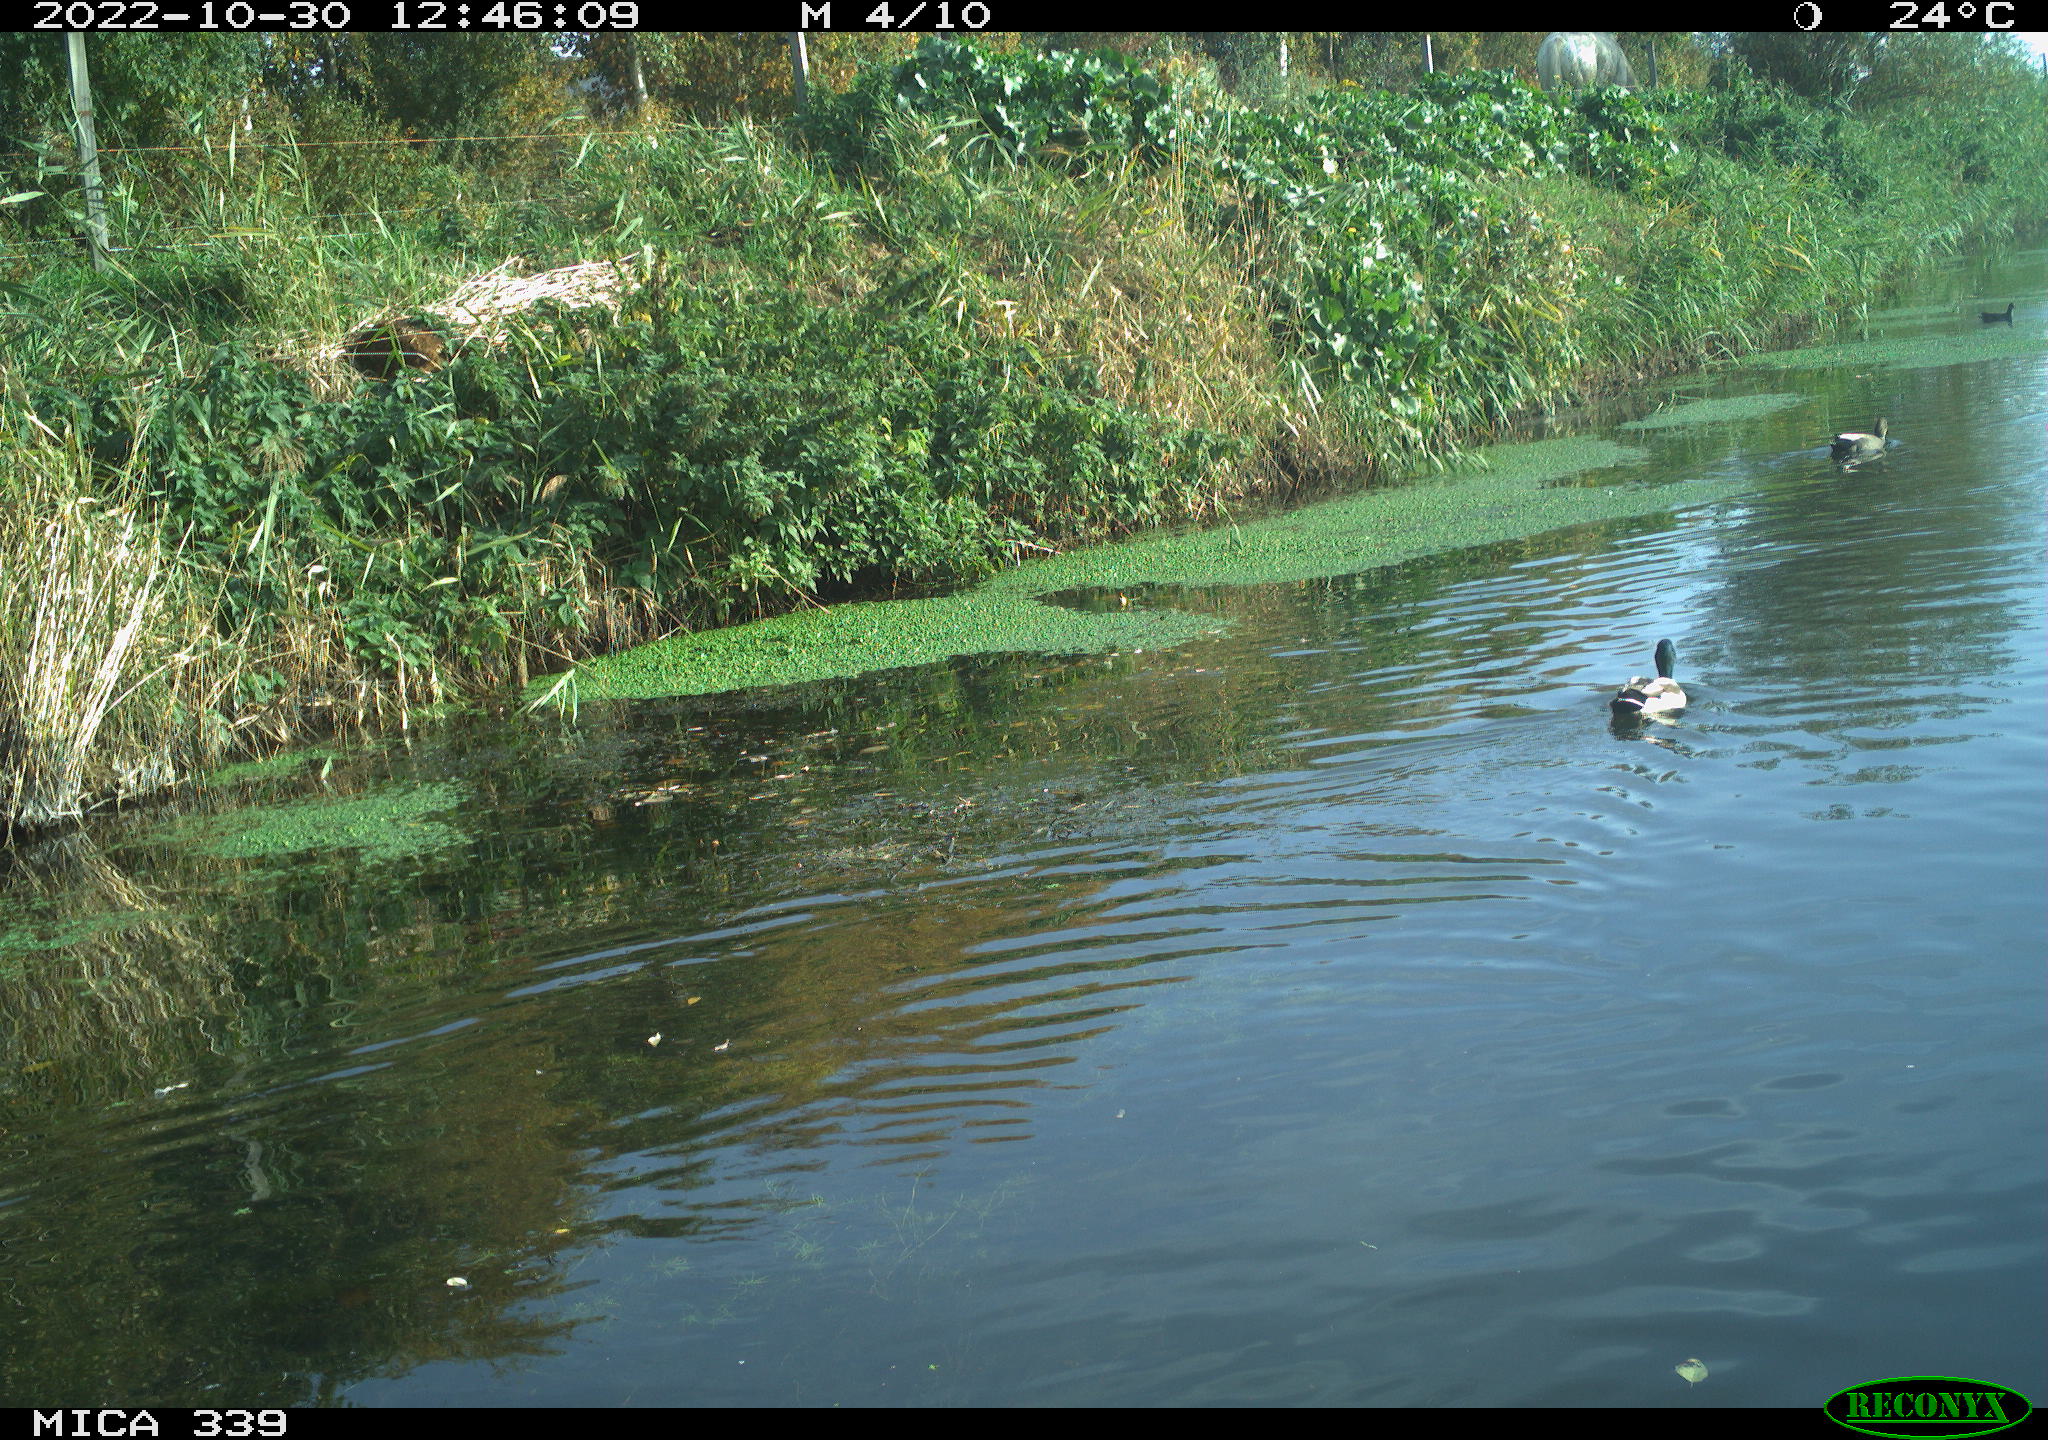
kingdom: Animalia
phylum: Chordata
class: Aves
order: Anseriformes
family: Anatidae
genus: Mareca
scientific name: Mareca strepera
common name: Gadwall
